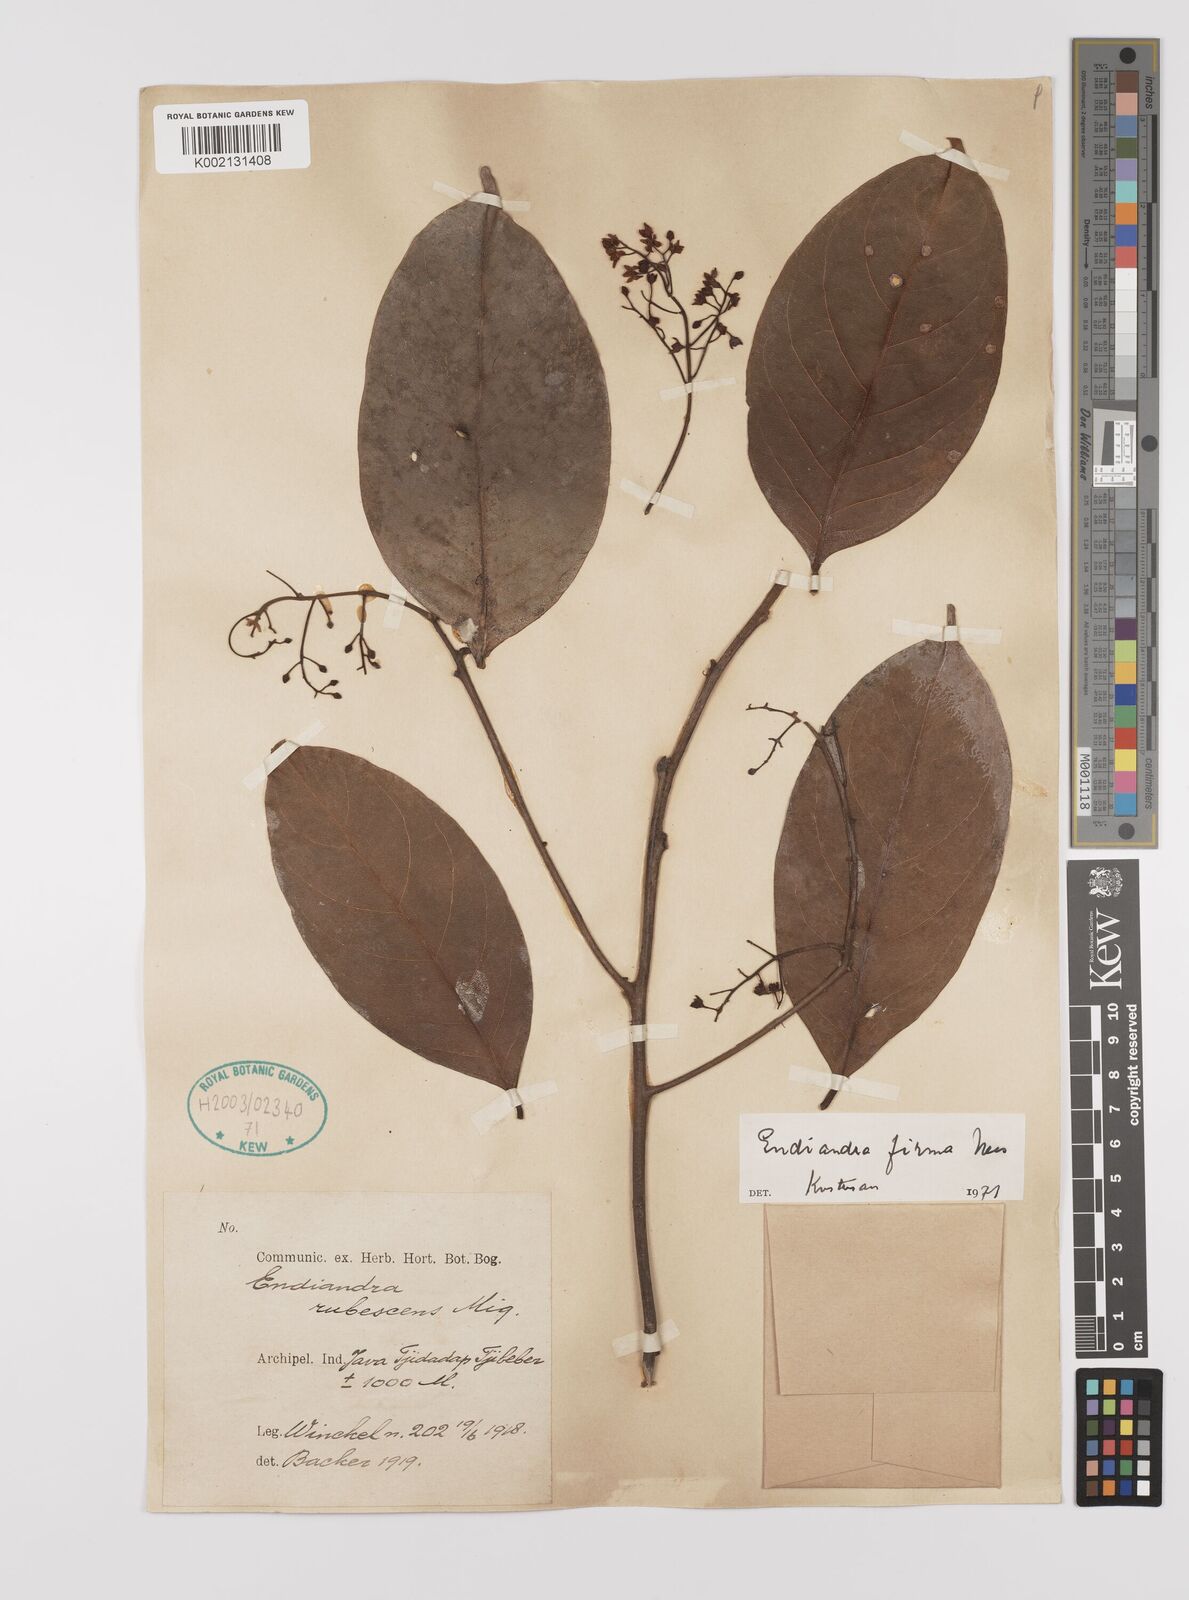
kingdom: Plantae
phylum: Tracheophyta
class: Magnoliopsida
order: Laurales
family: Lauraceae
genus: Endiandra
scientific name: Endiandra firma
